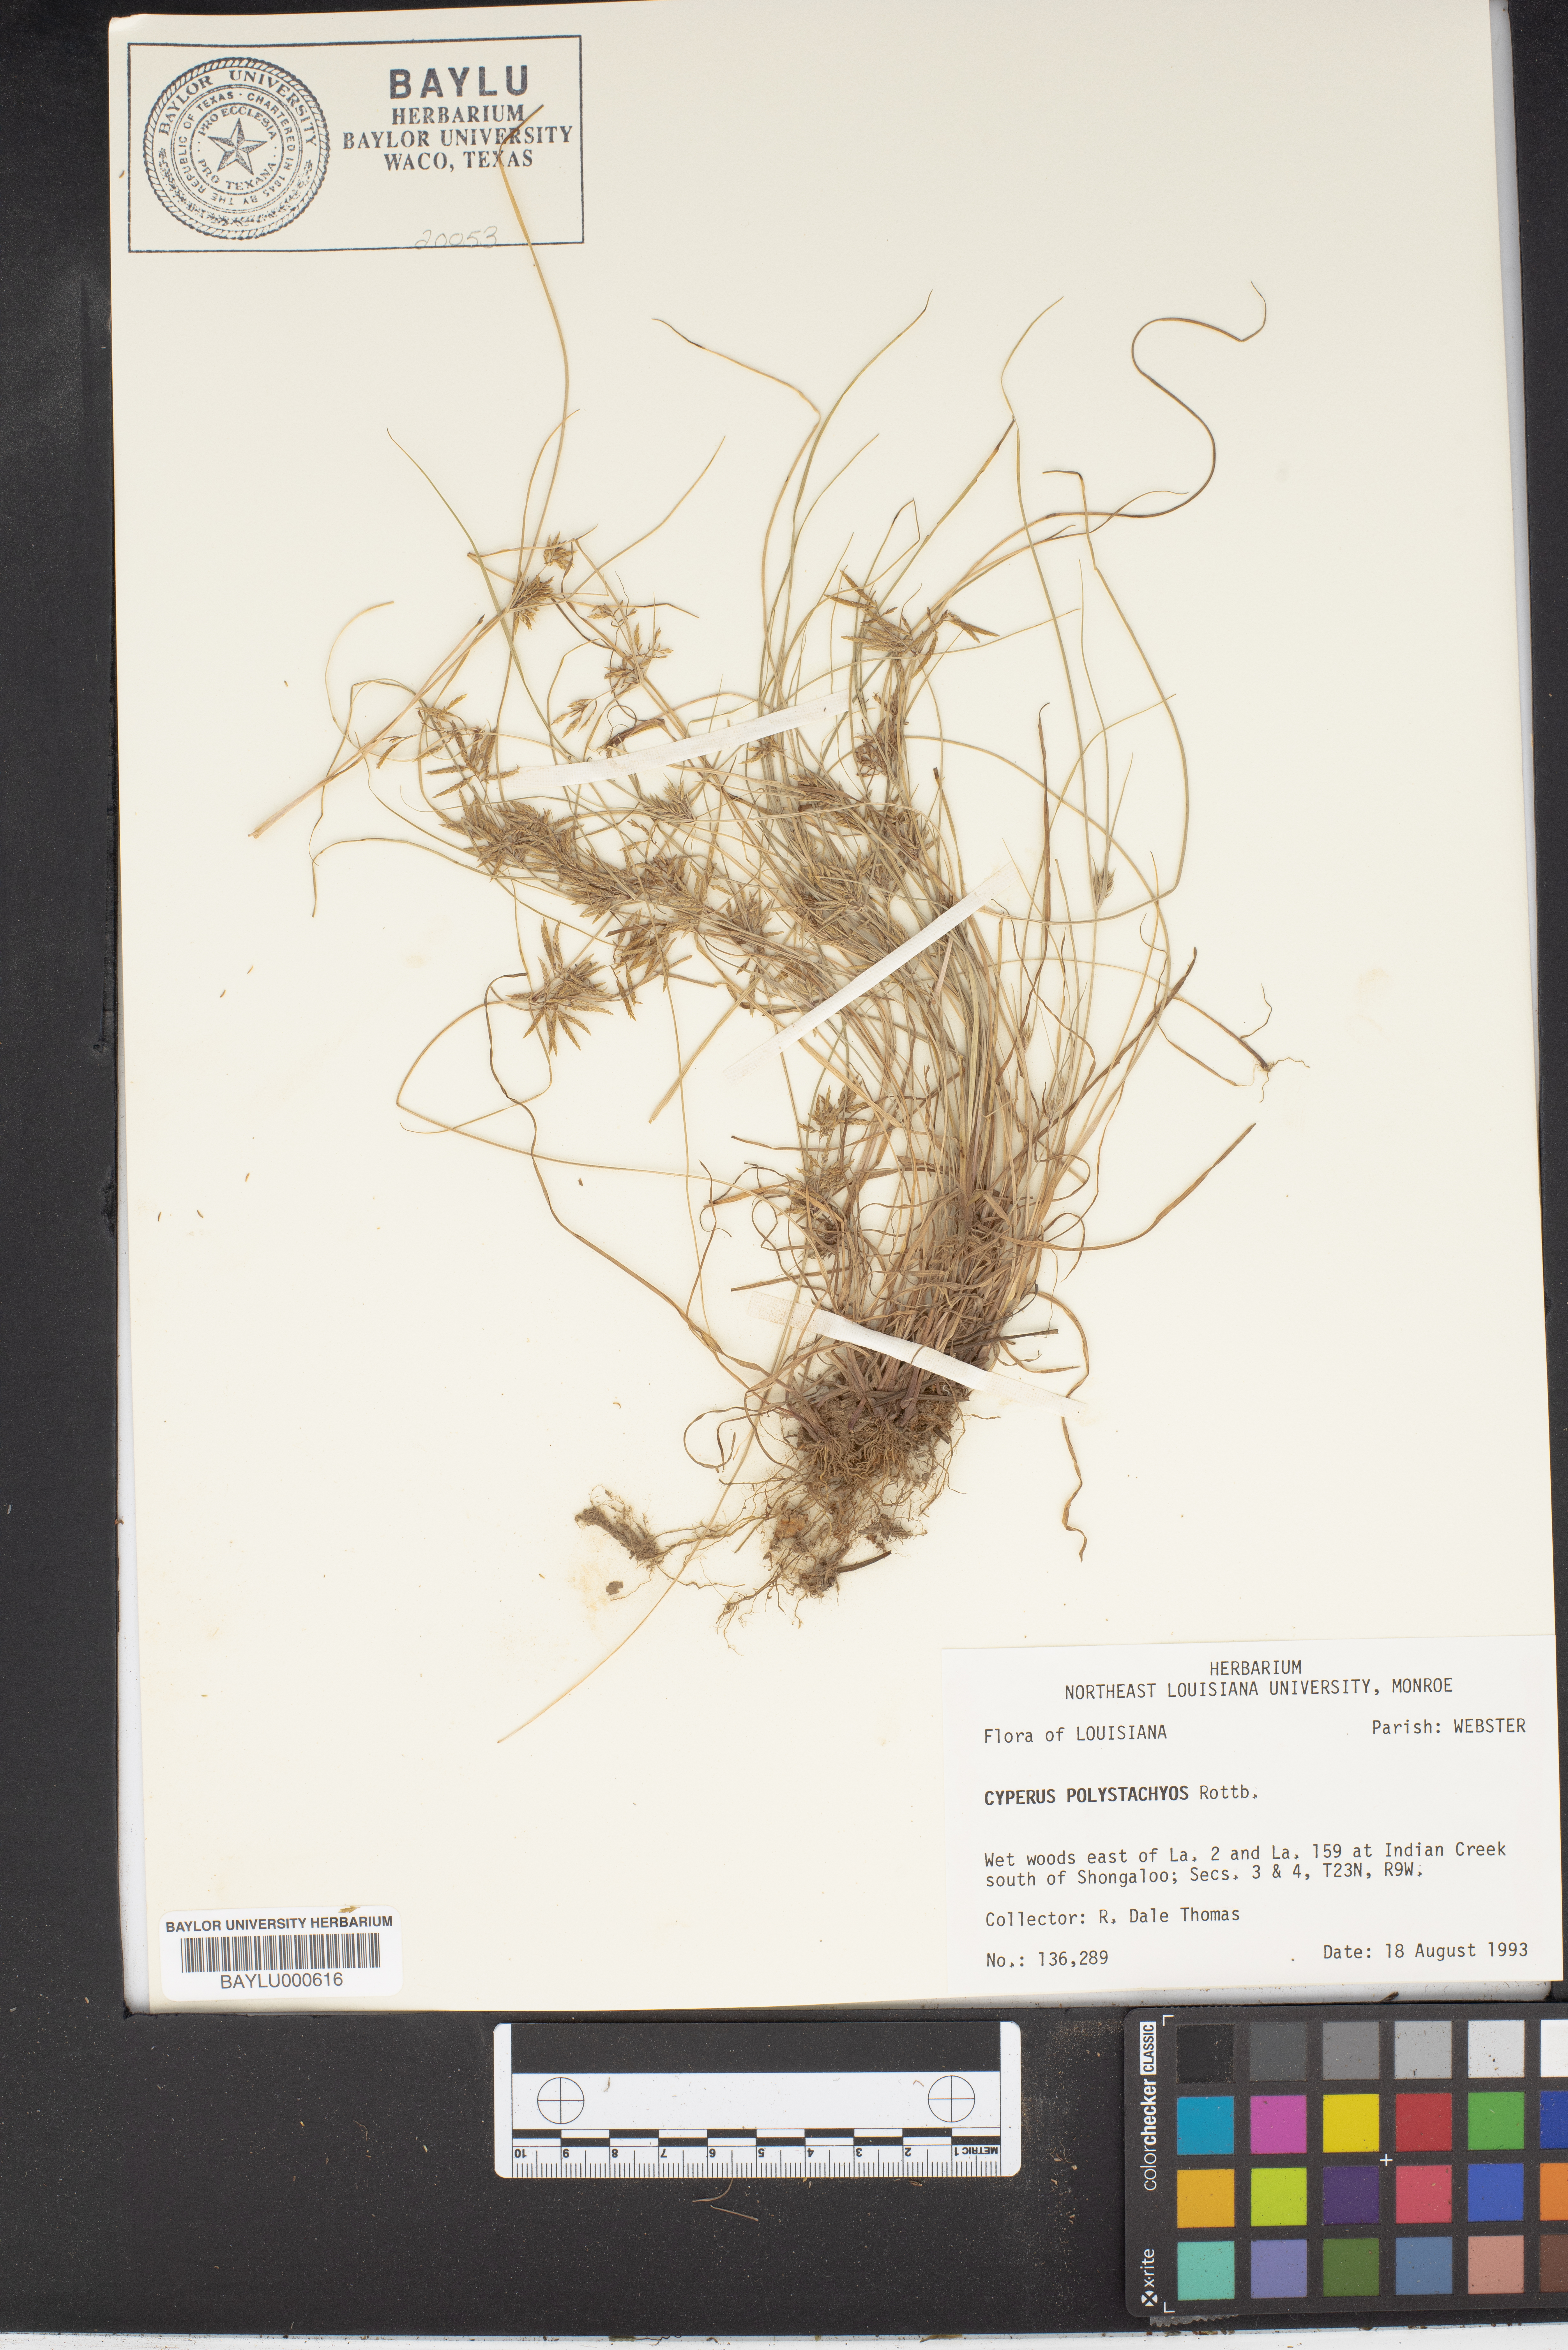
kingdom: Plantae
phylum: Tracheophyta
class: Liliopsida
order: Poales
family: Cyperaceae
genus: Cyperus
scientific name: Cyperus polystachyos
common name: Bunchy flat sedge
